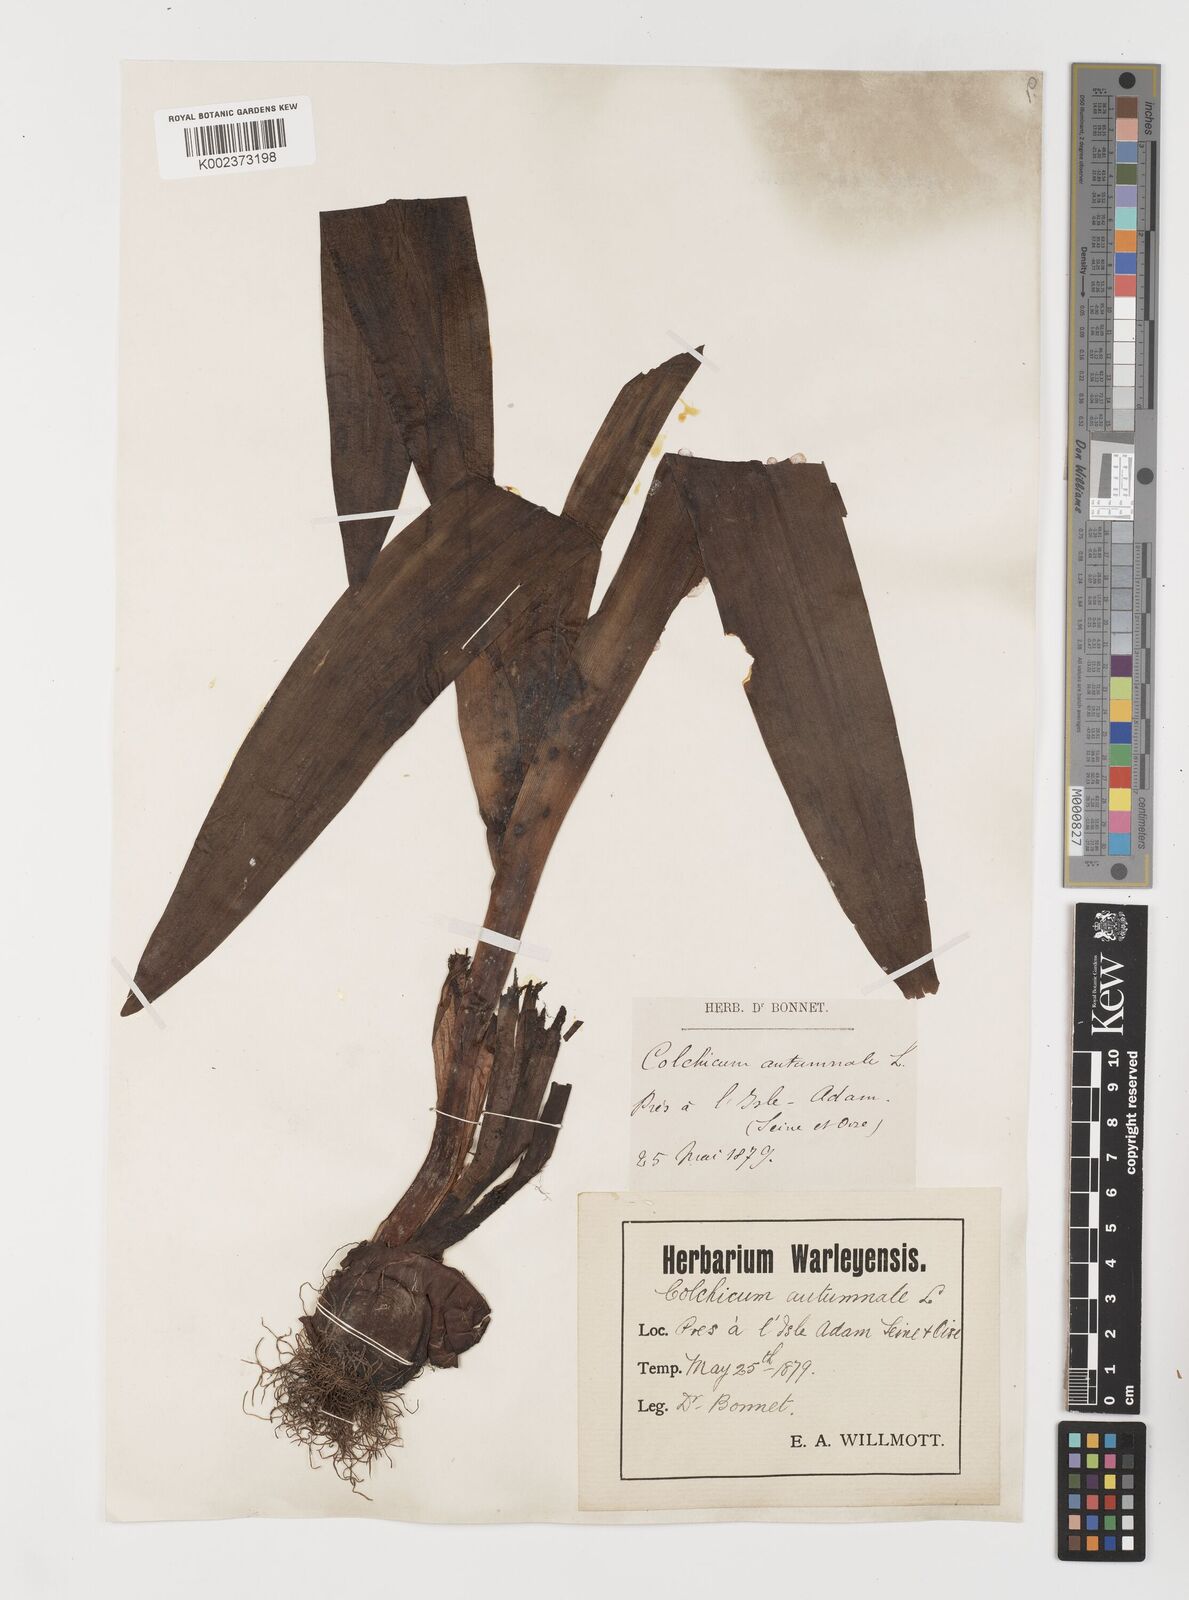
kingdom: Plantae
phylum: Tracheophyta
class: Liliopsida
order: Liliales
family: Colchicaceae
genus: Colchicum
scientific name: Colchicum autumnale
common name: Autumn crocus
